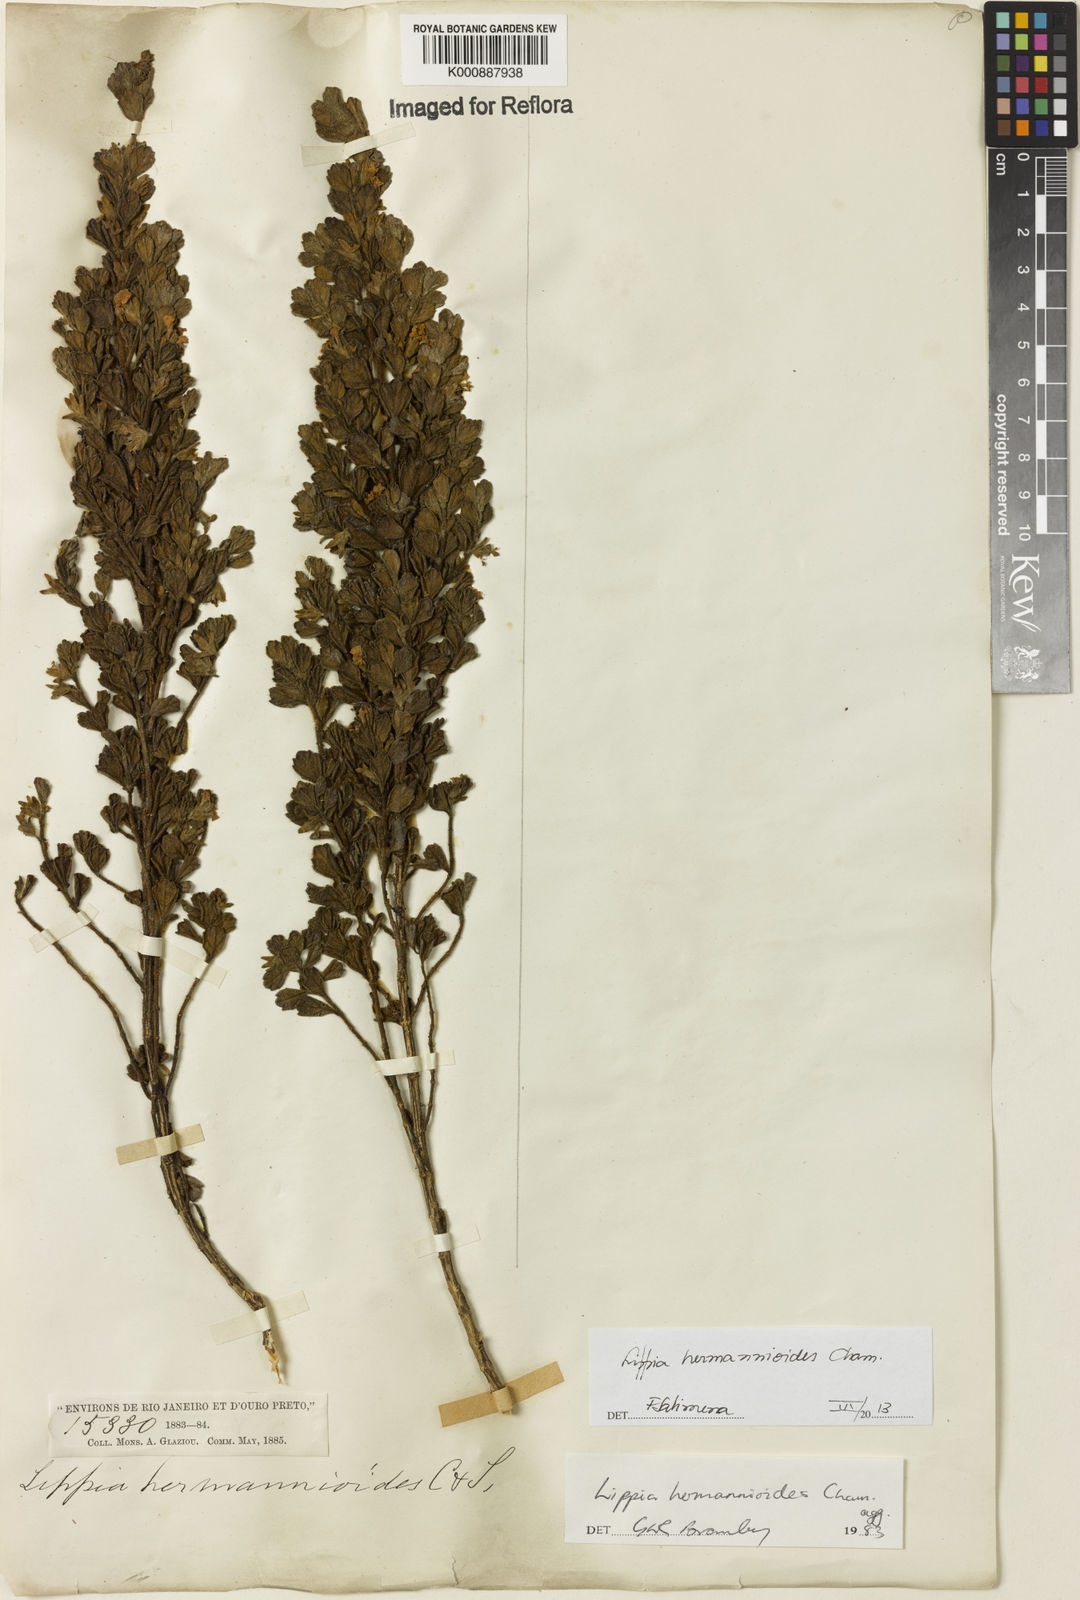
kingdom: Plantae
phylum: Tracheophyta
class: Magnoliopsida
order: Lamiales
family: Verbenaceae
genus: Lippia
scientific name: Lippia hermannioides
